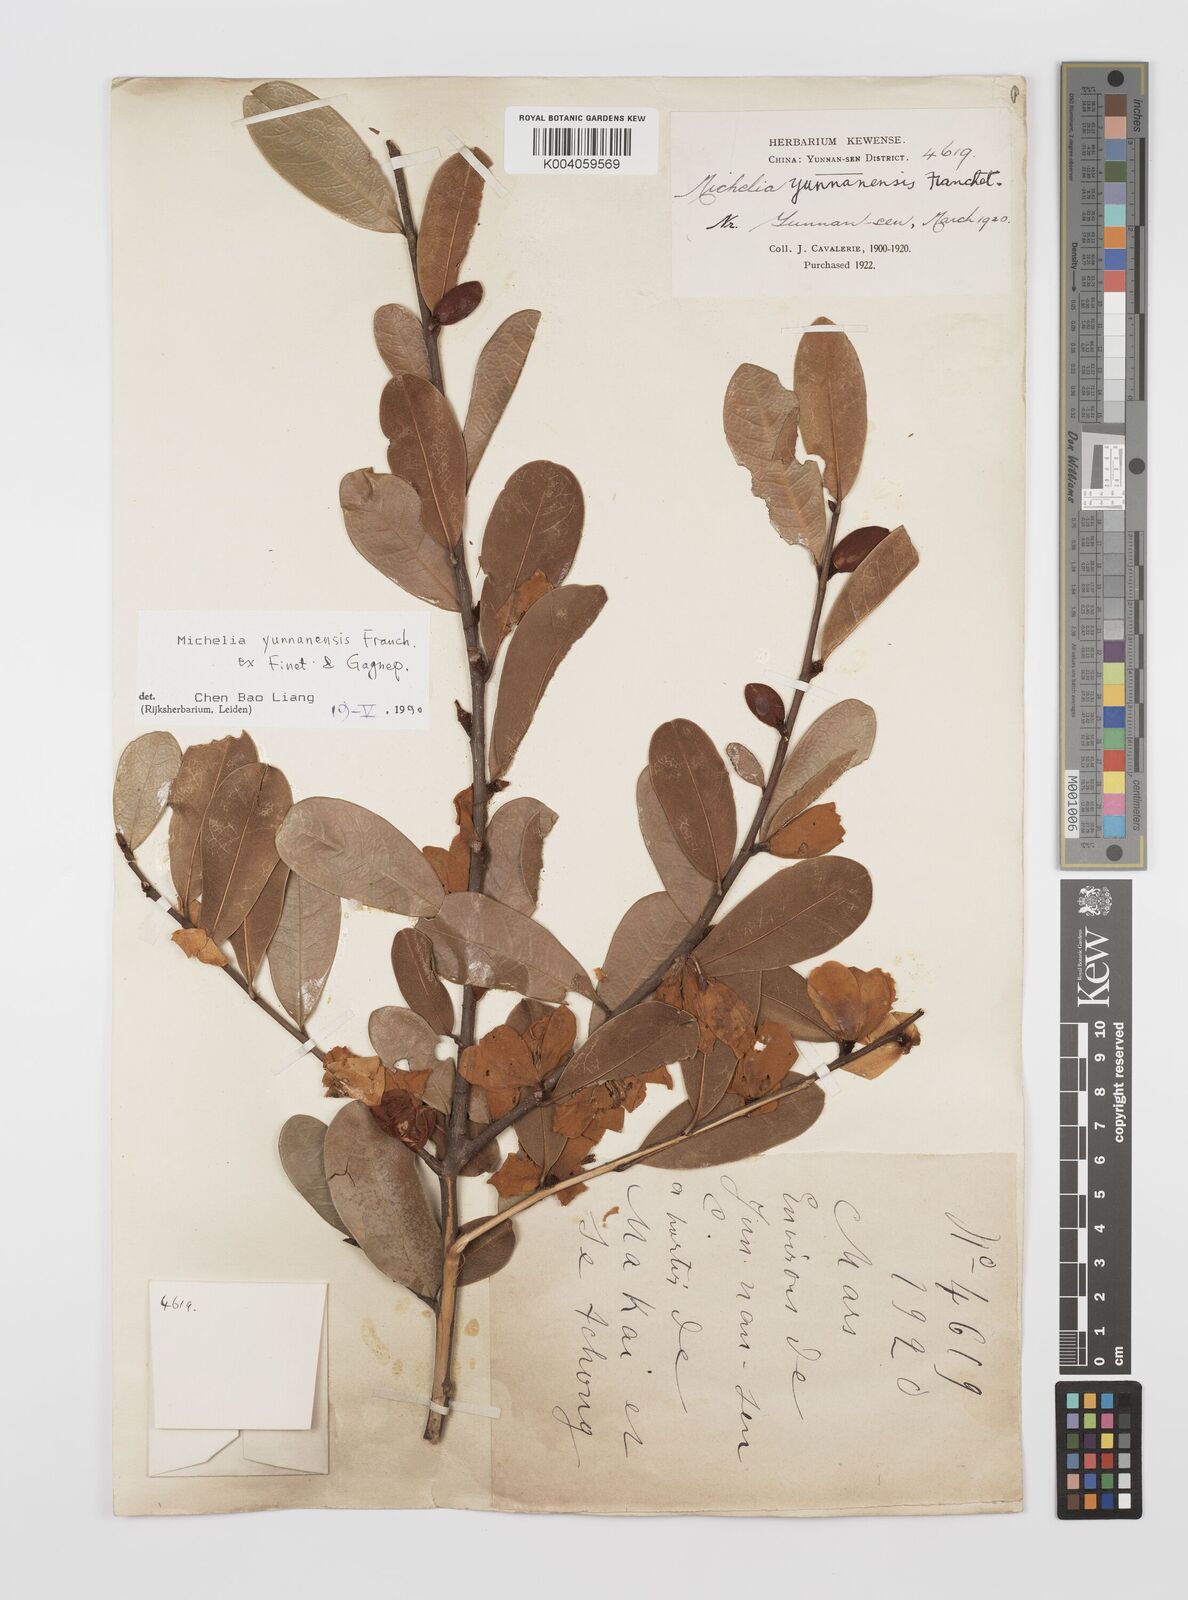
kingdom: Plantae
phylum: Tracheophyta
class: Magnoliopsida
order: Magnoliales
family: Magnoliaceae
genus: Magnolia
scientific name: Magnolia laevifolia
